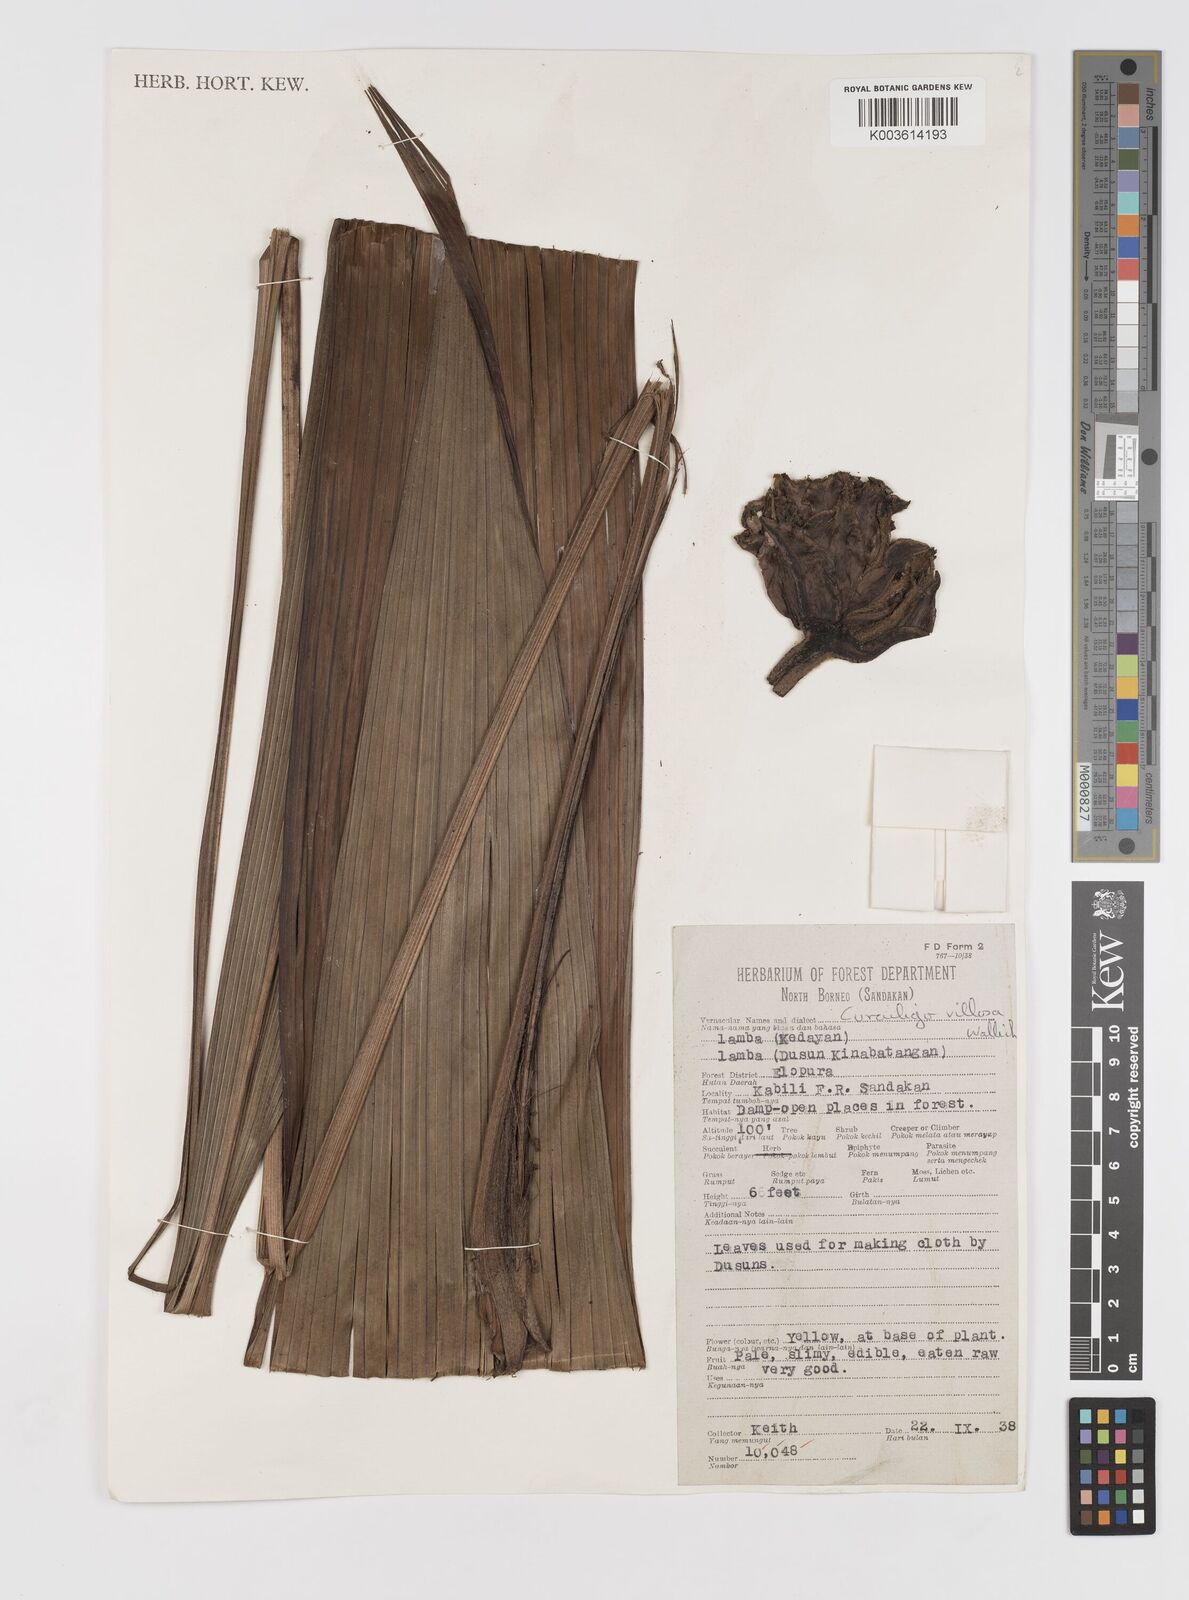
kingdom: Plantae
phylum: Tracheophyta
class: Liliopsida
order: Asparagales
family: Hypoxidaceae
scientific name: Hypoxidaceae
